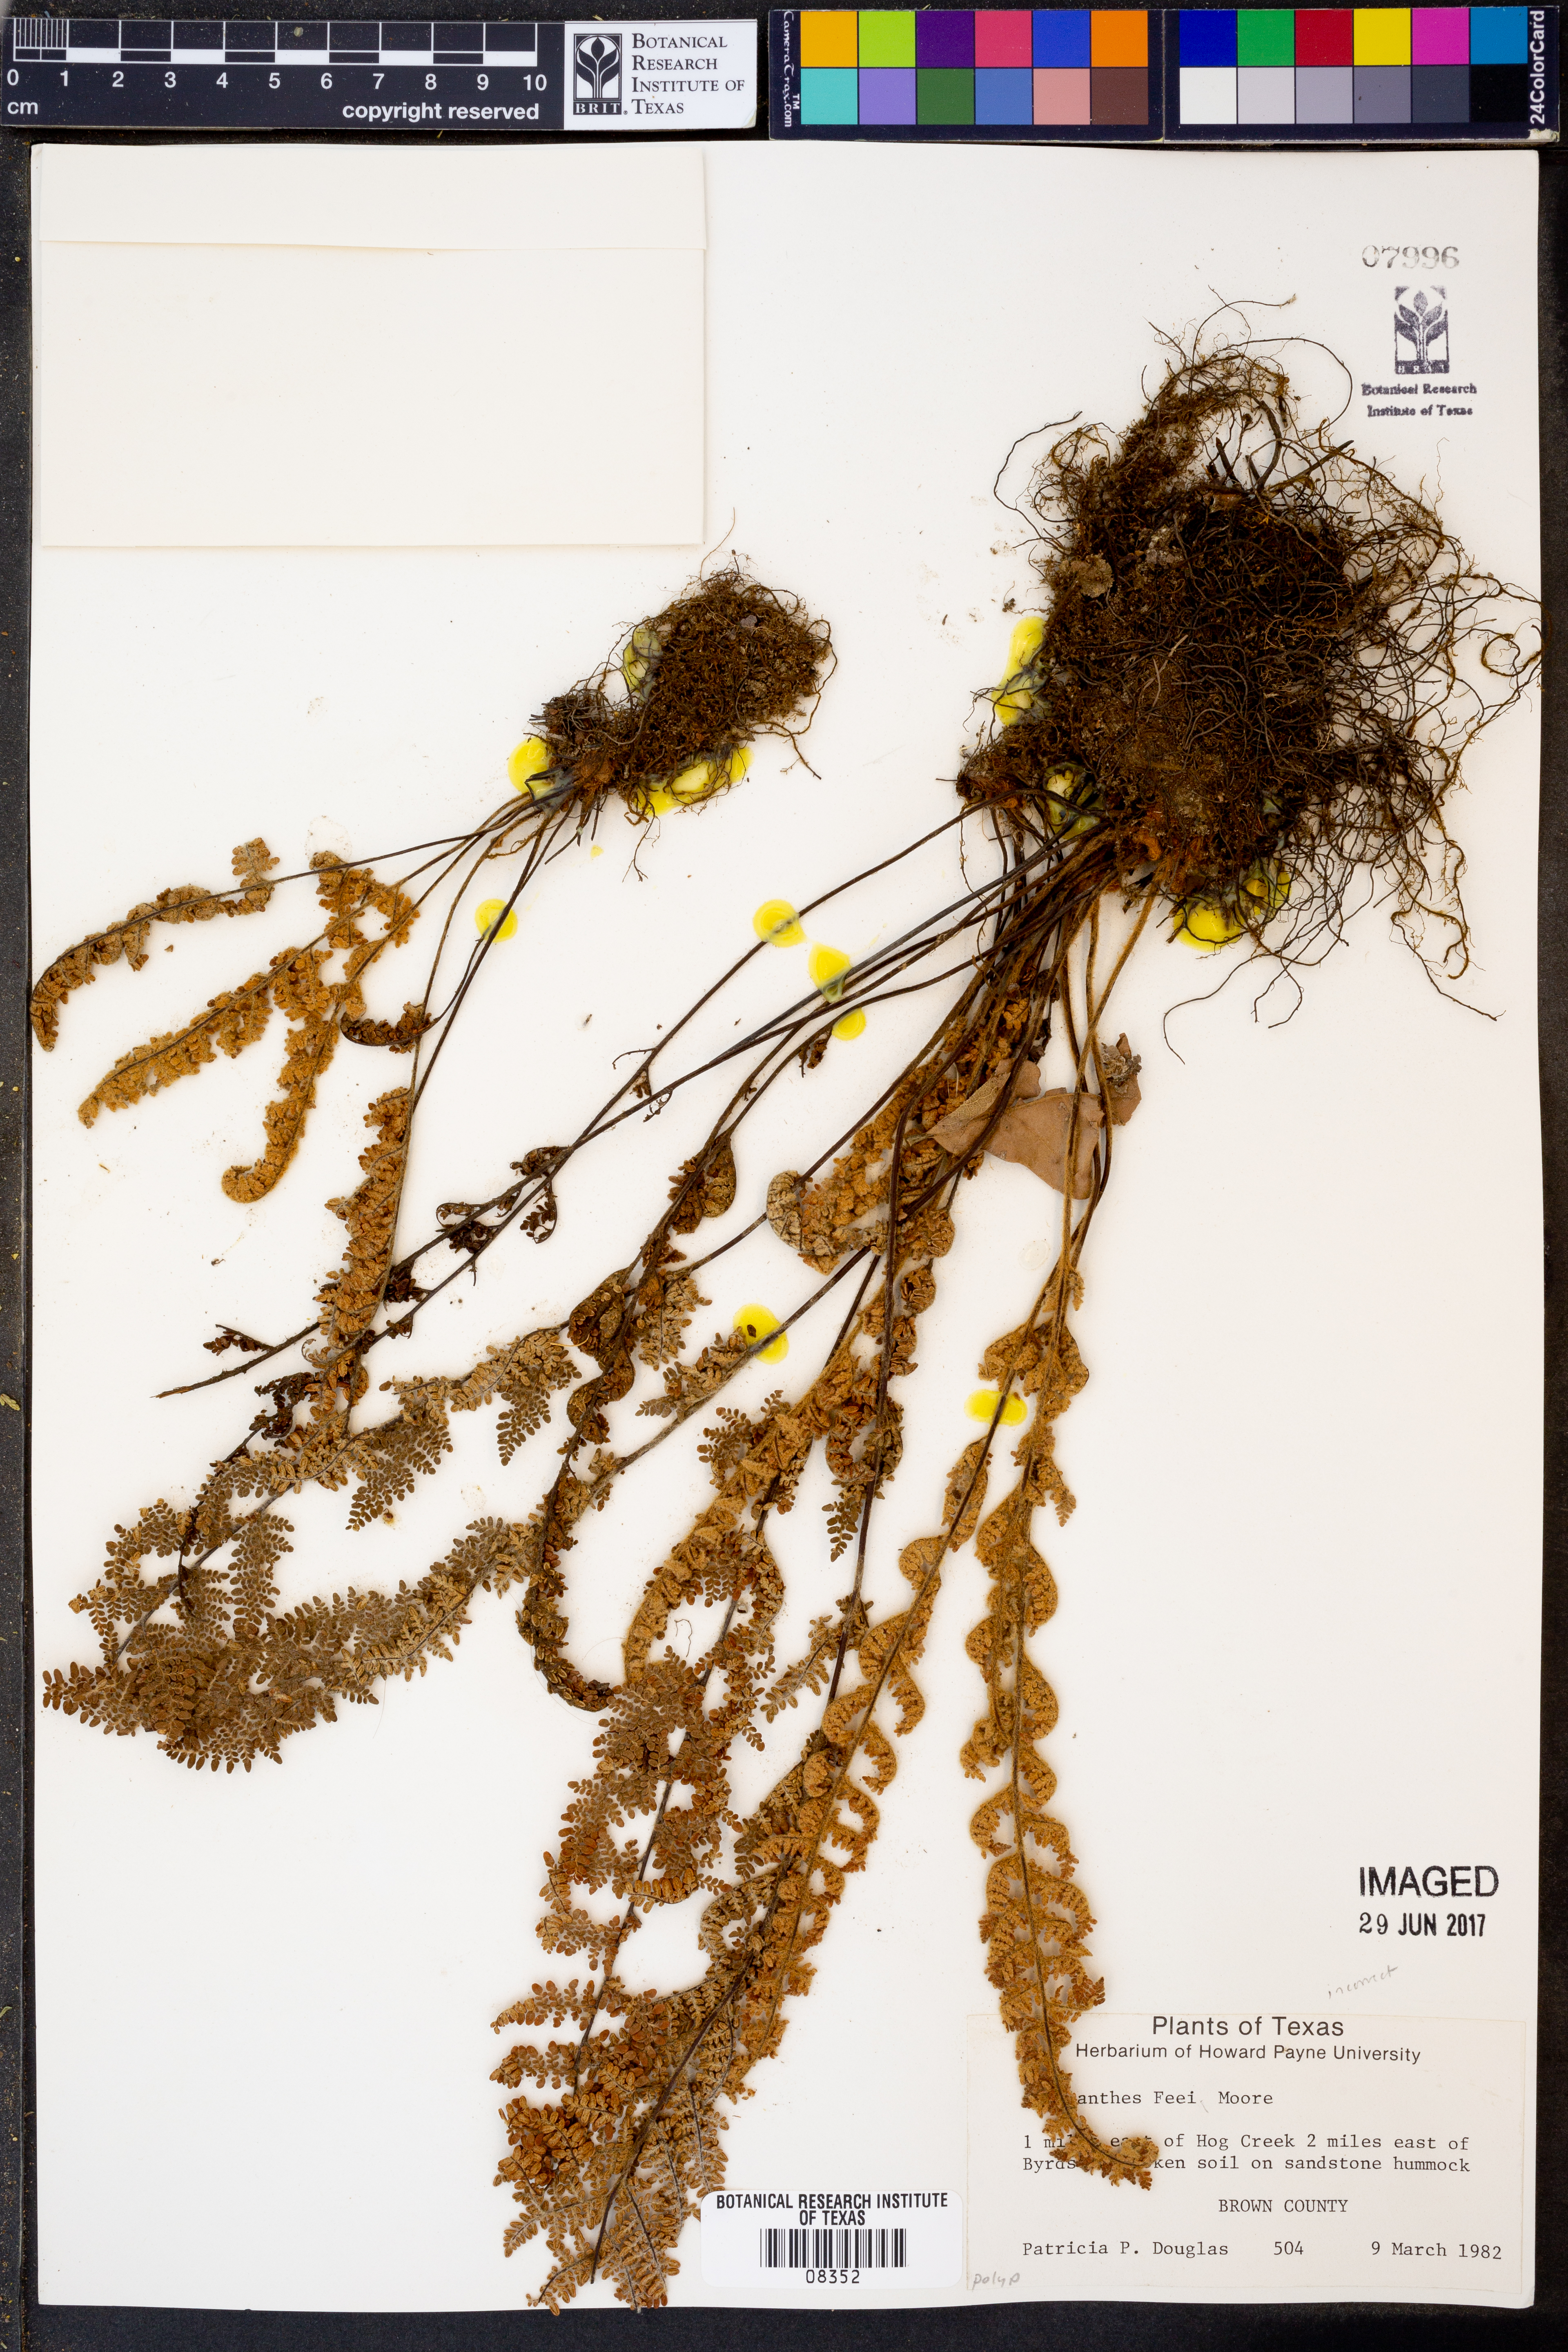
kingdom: Plantae
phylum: Tracheophyta
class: Polypodiopsida
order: Polypodiales
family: Pteridaceae
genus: Myriopteris
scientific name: Myriopteris gracilis
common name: Fee's lip fern
